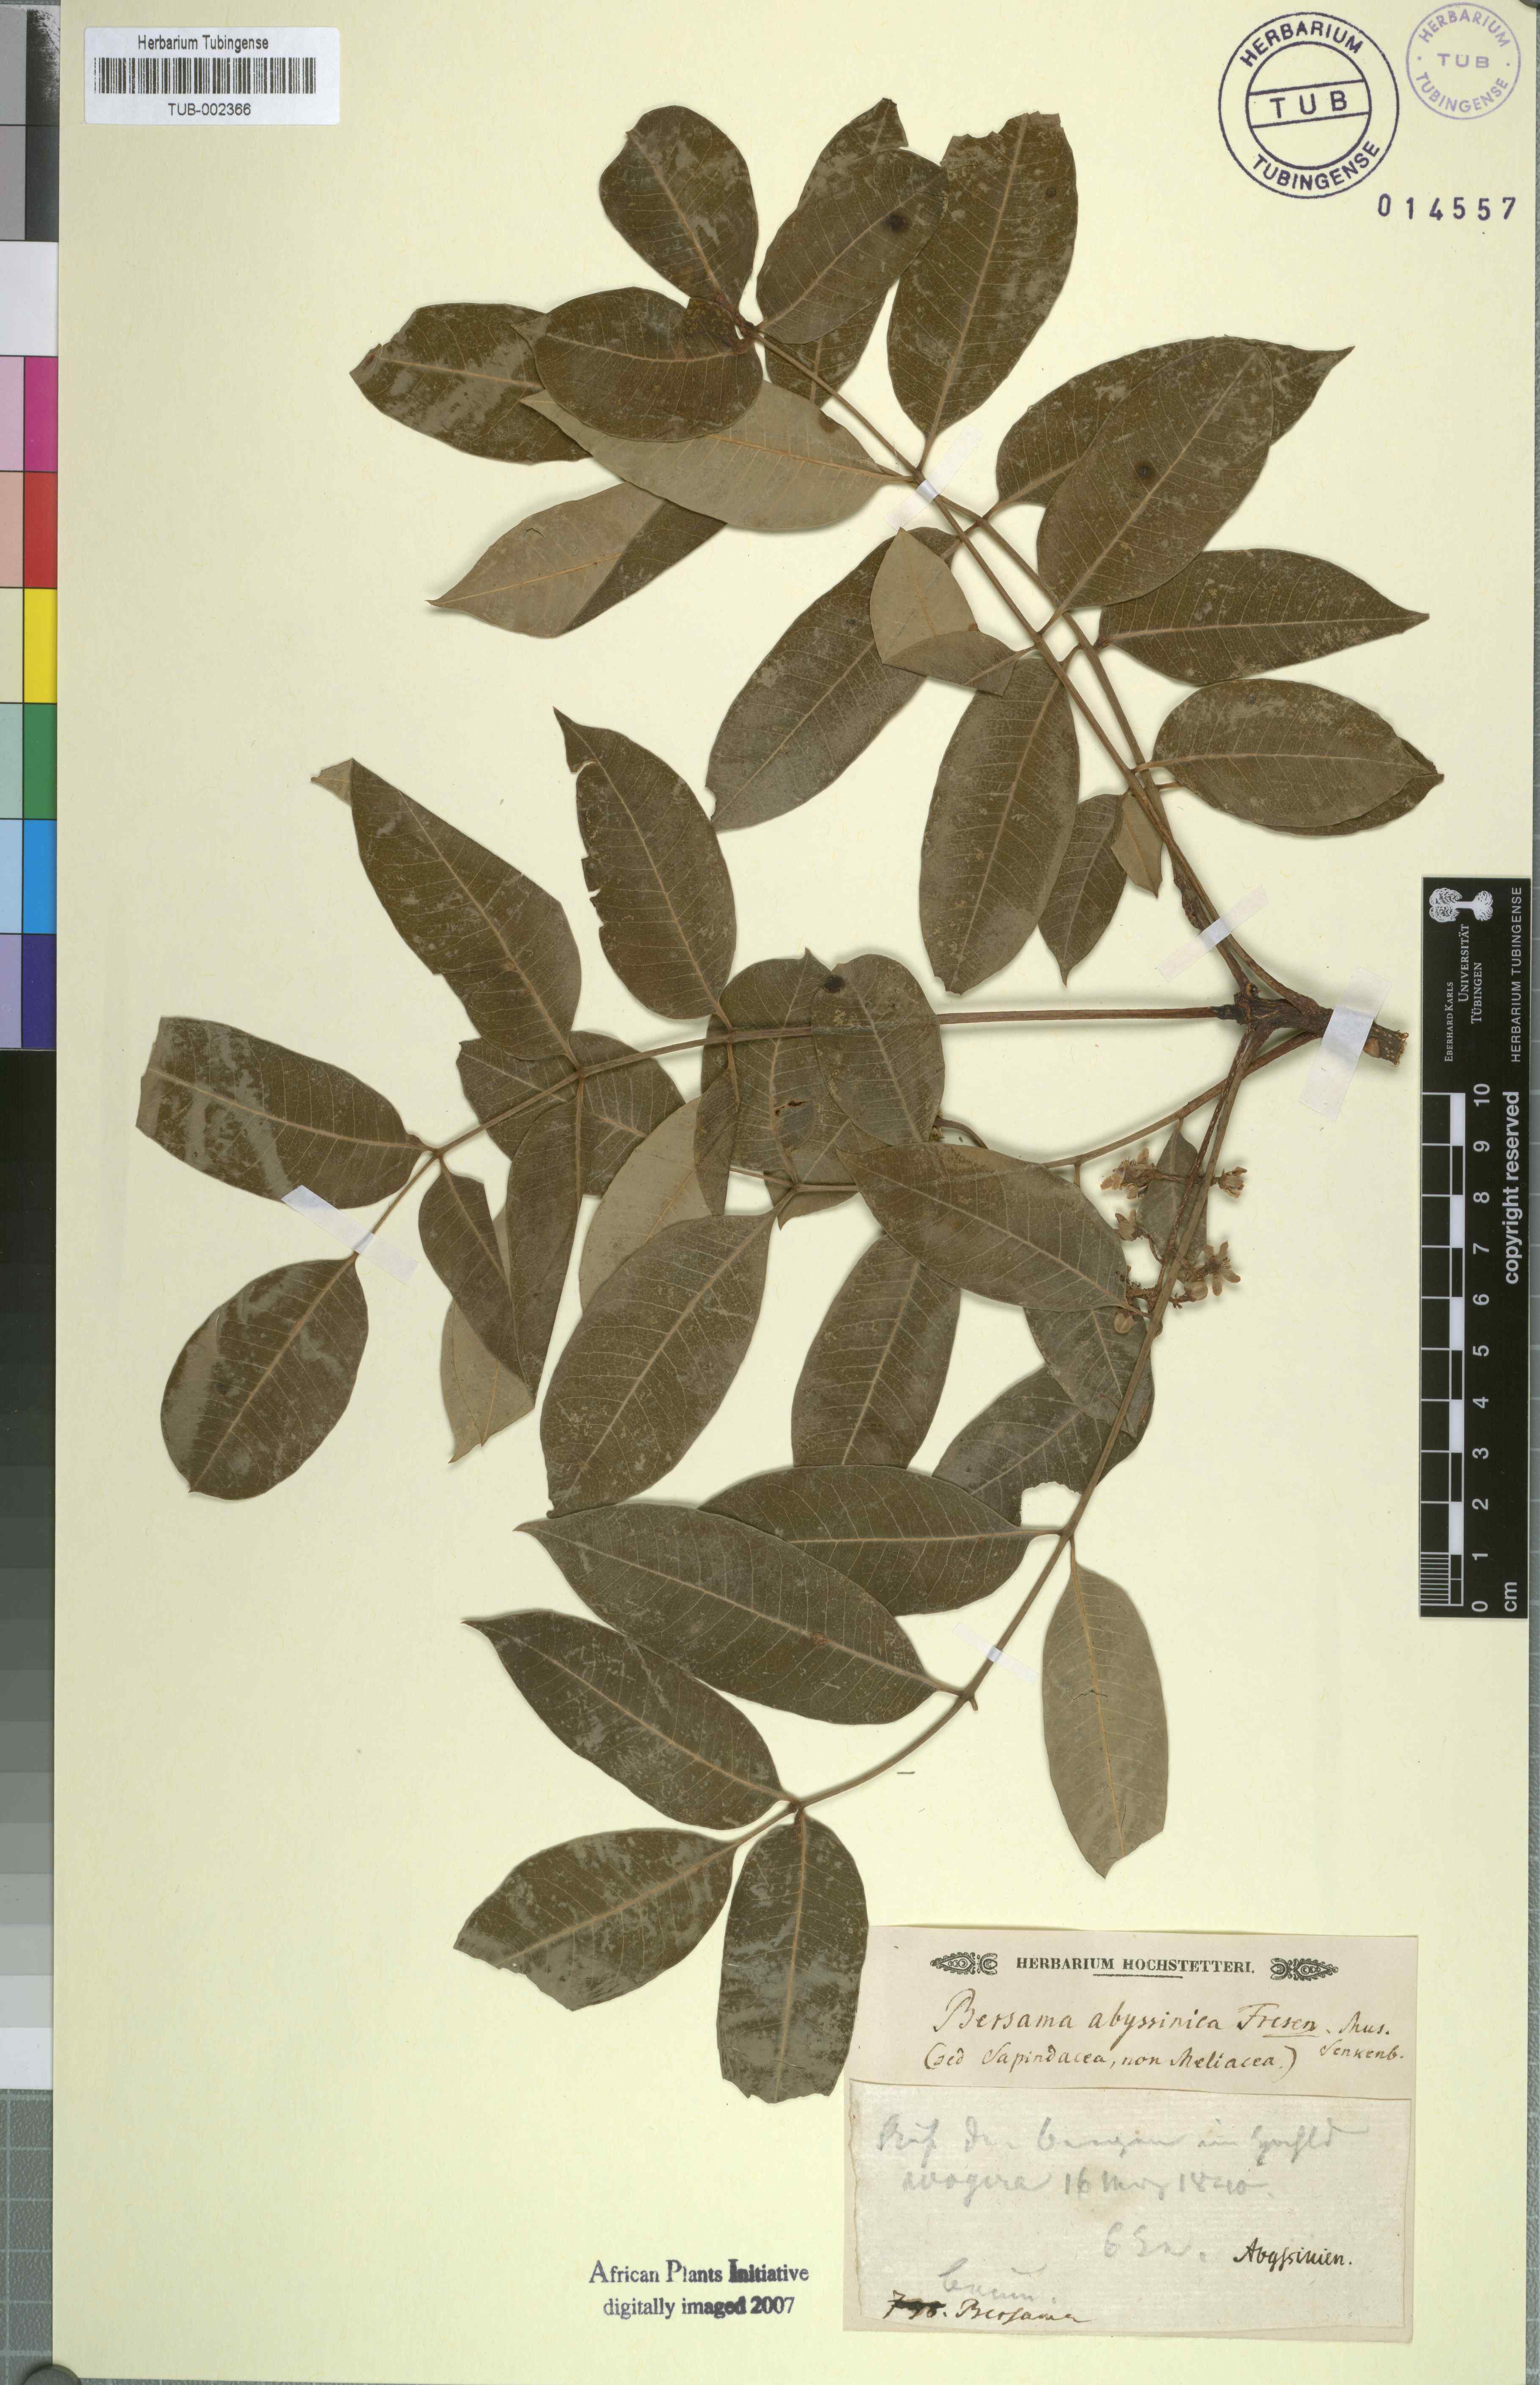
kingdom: Plantae
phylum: Tracheophyta
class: Magnoliopsida
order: Geraniales
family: Melianthaceae
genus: Bersama
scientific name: Bersama abyssinica
